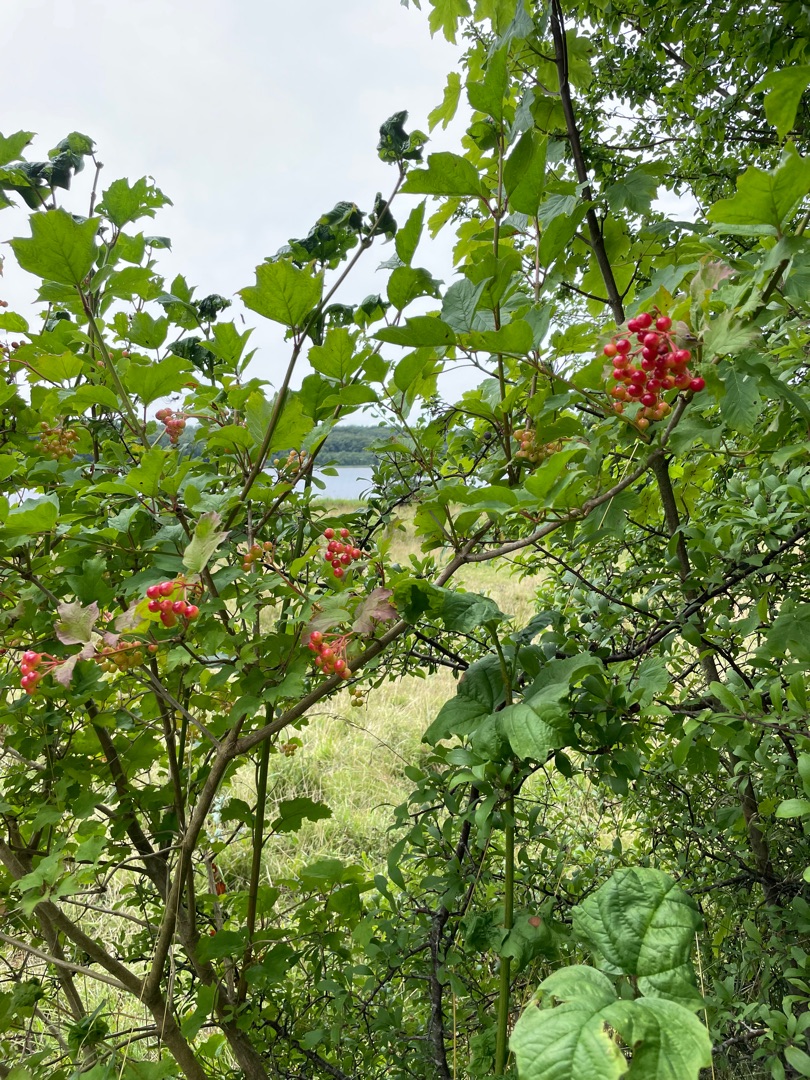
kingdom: Plantae
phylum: Tracheophyta
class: Magnoliopsida
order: Dipsacales
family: Viburnaceae
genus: Viburnum
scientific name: Viburnum opulus
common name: Kvalkved
